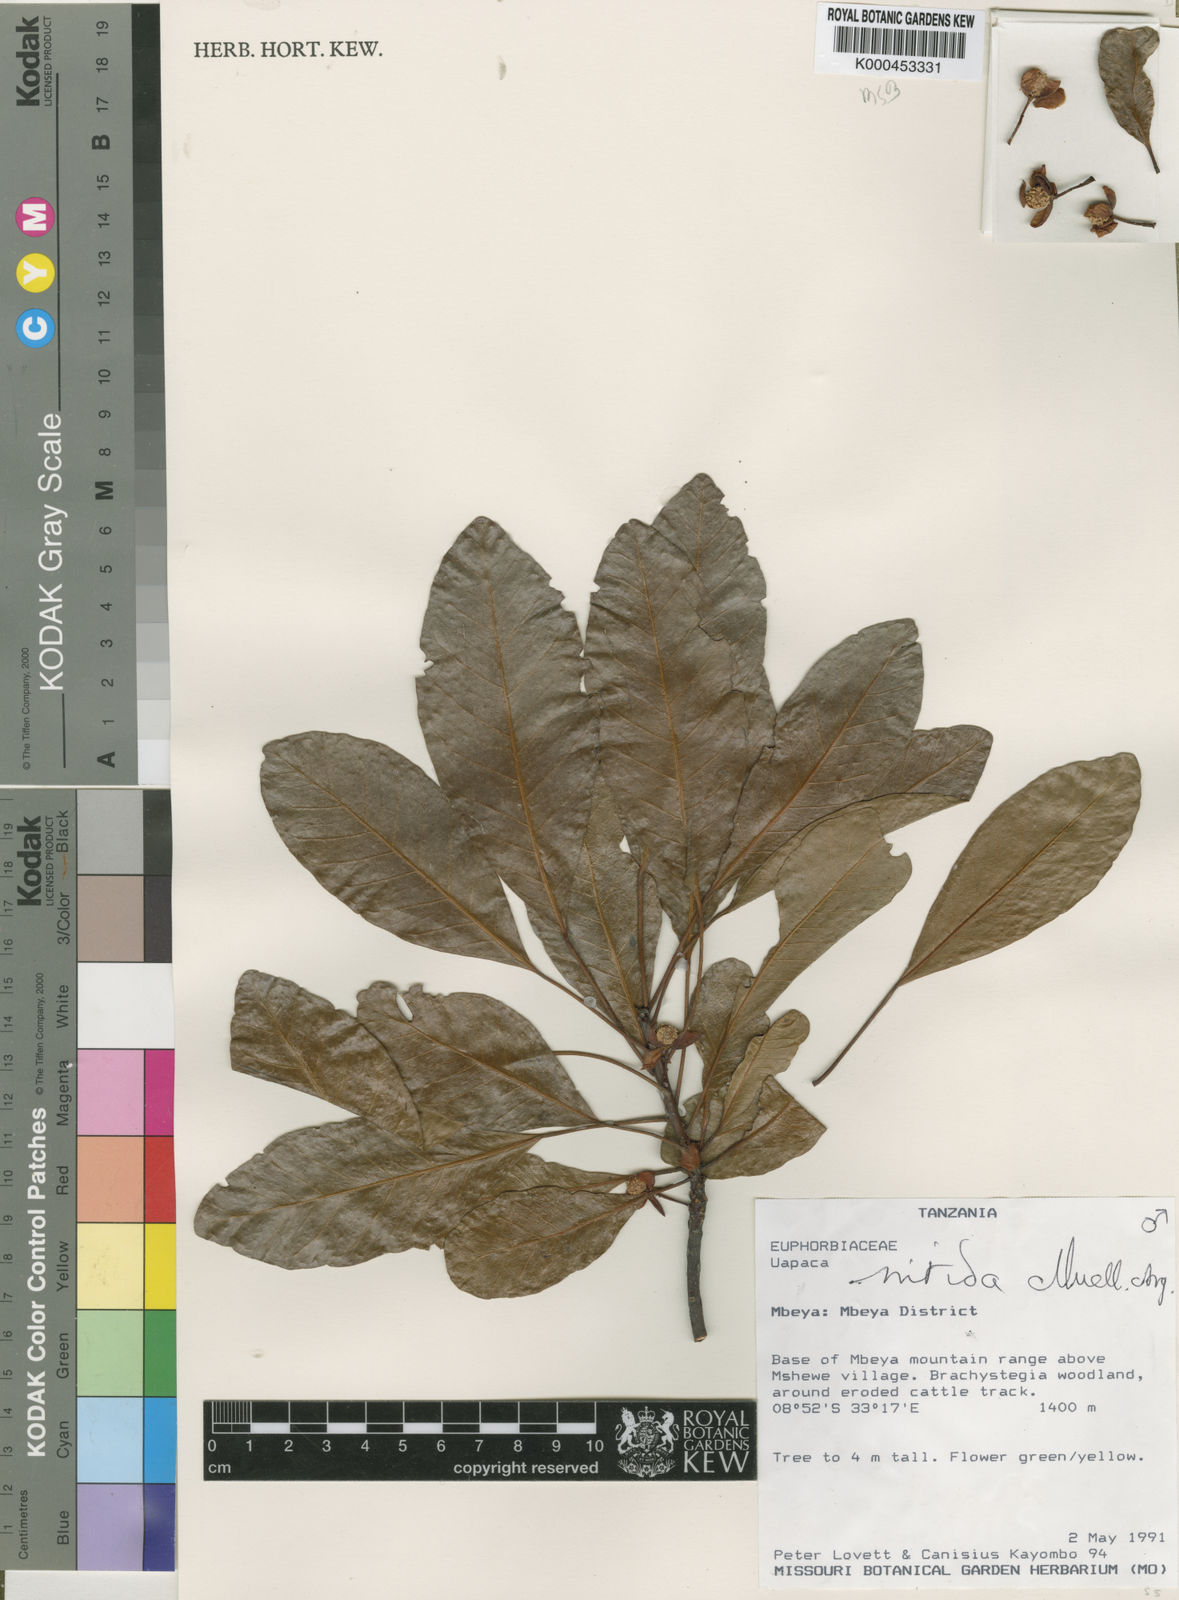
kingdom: Plantae
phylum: Tracheophyta
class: Magnoliopsida
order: Malpighiales
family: Phyllanthaceae
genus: Uapaca
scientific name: Uapaca
